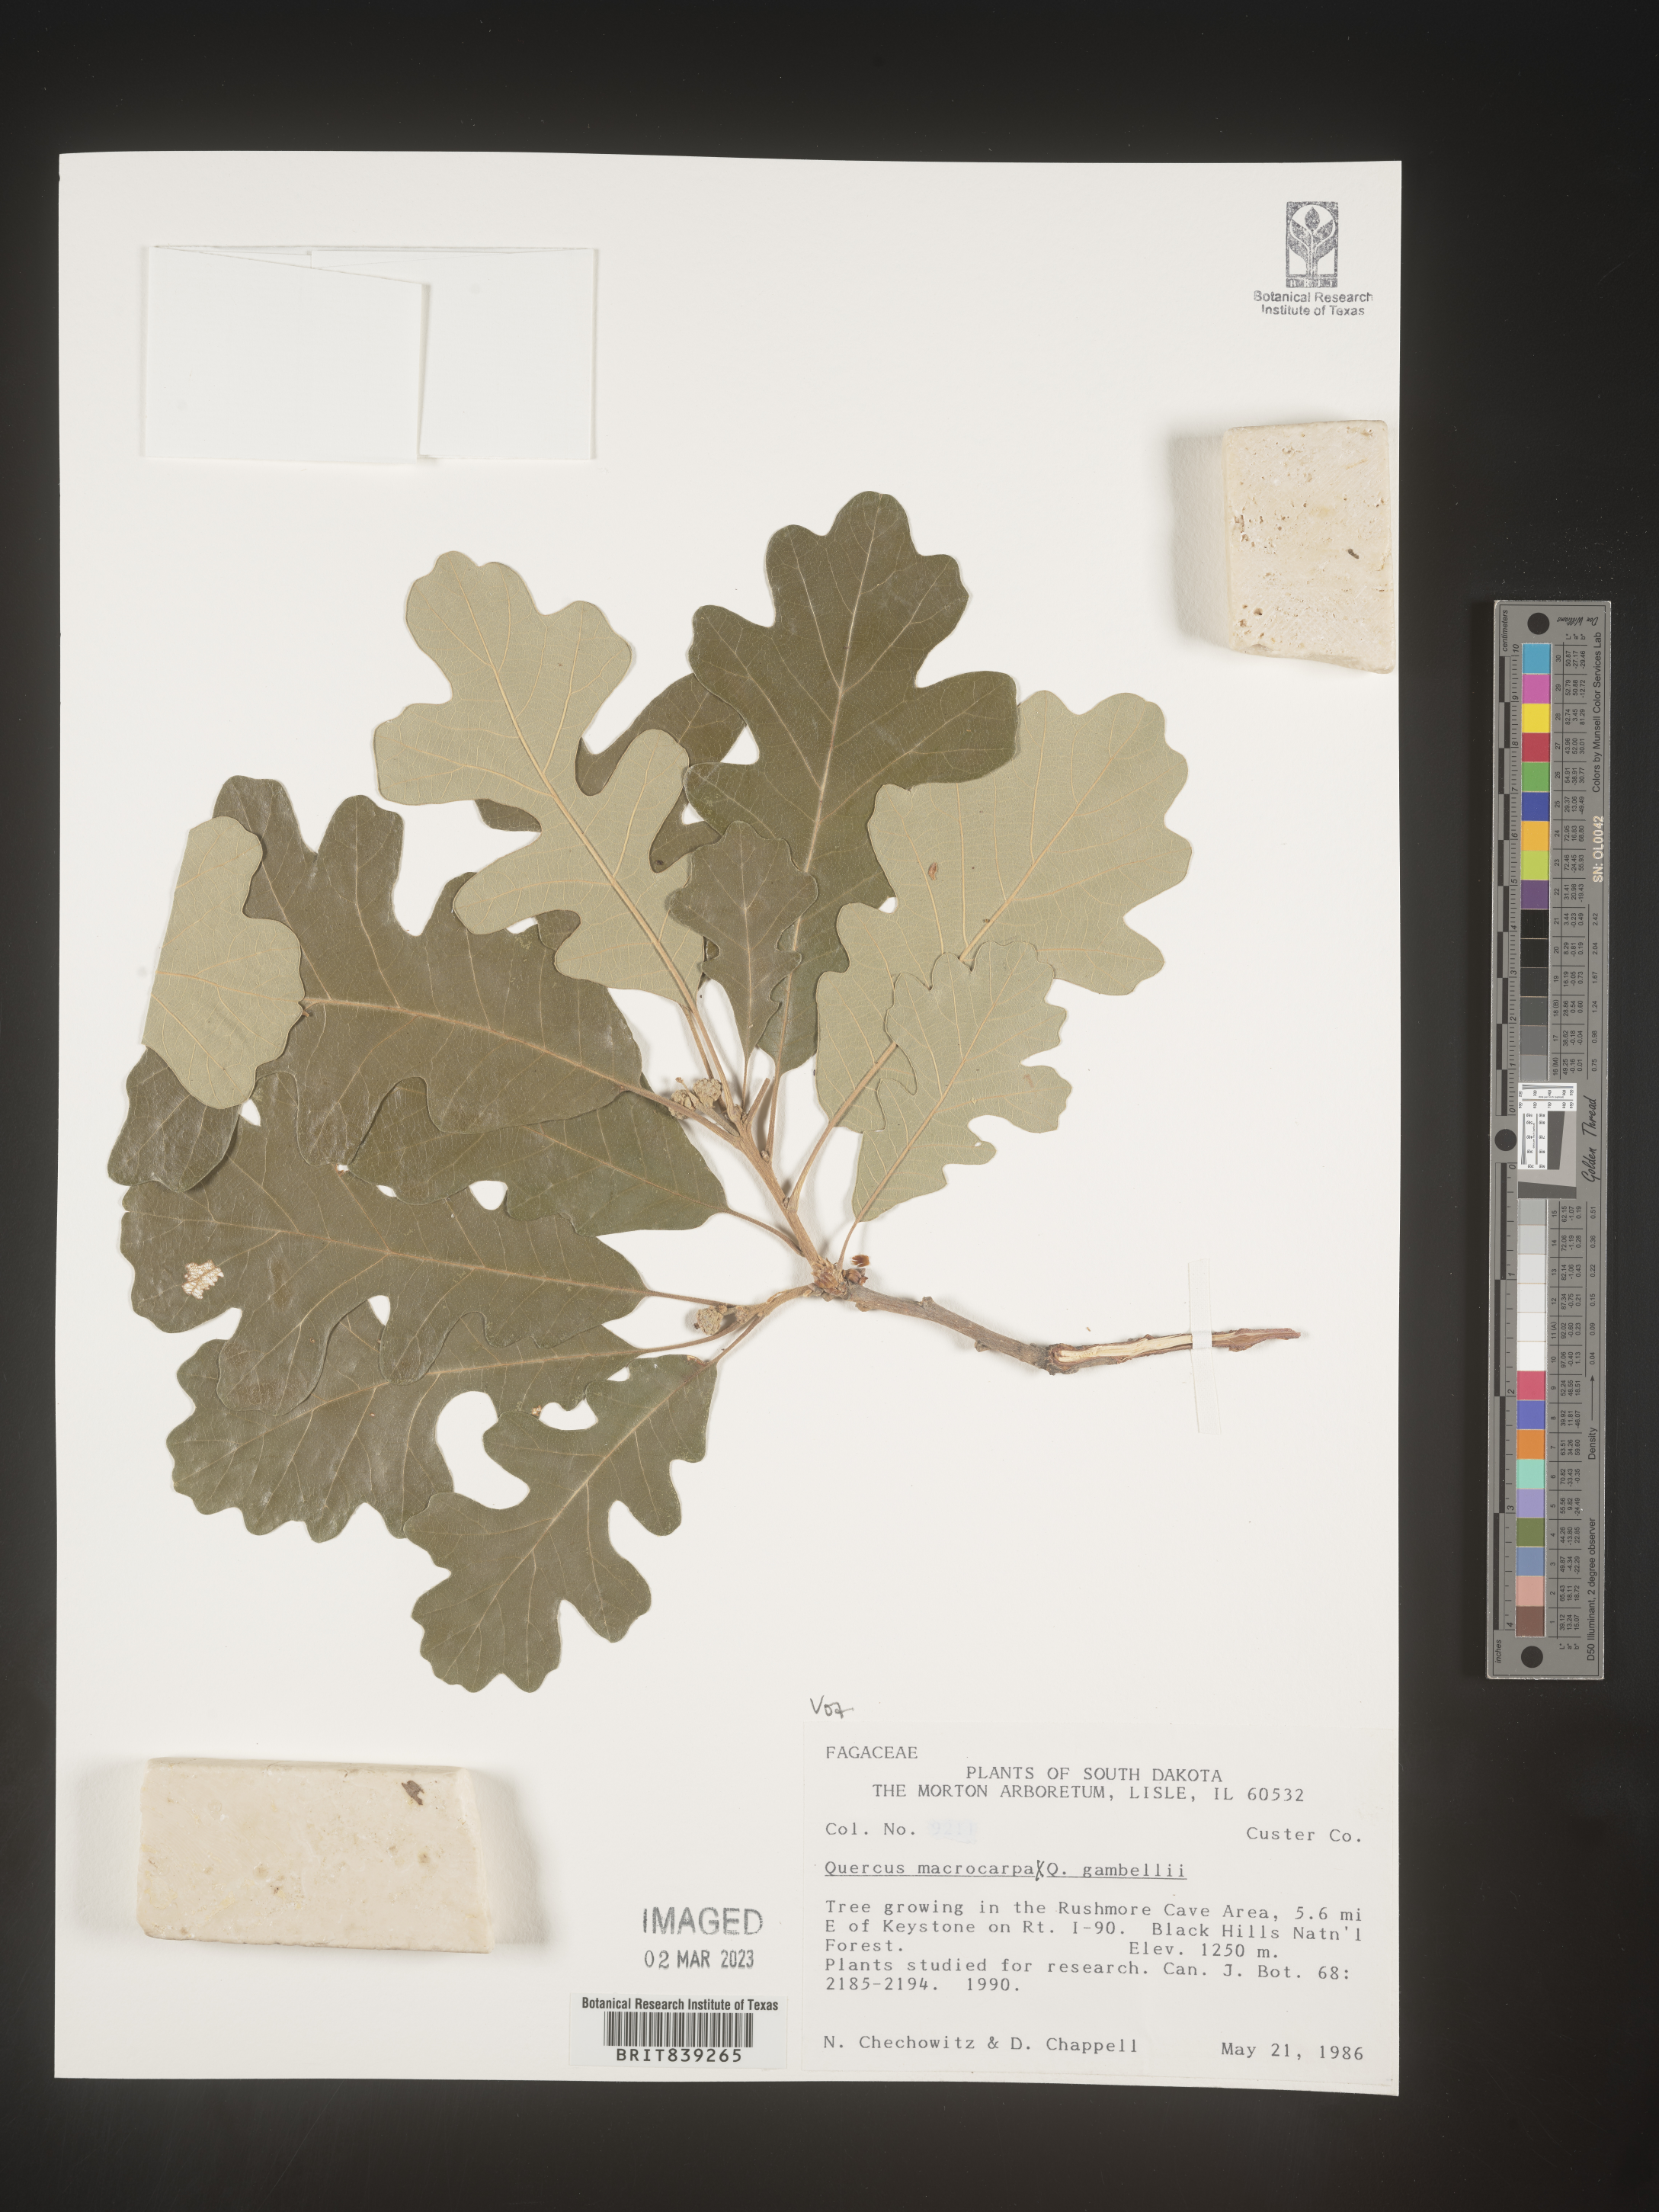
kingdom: Plantae
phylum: Tracheophyta
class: Magnoliopsida
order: Fagales
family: Fagaceae
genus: Quercus
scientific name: Quercus macrocarpa
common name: Bur oak
